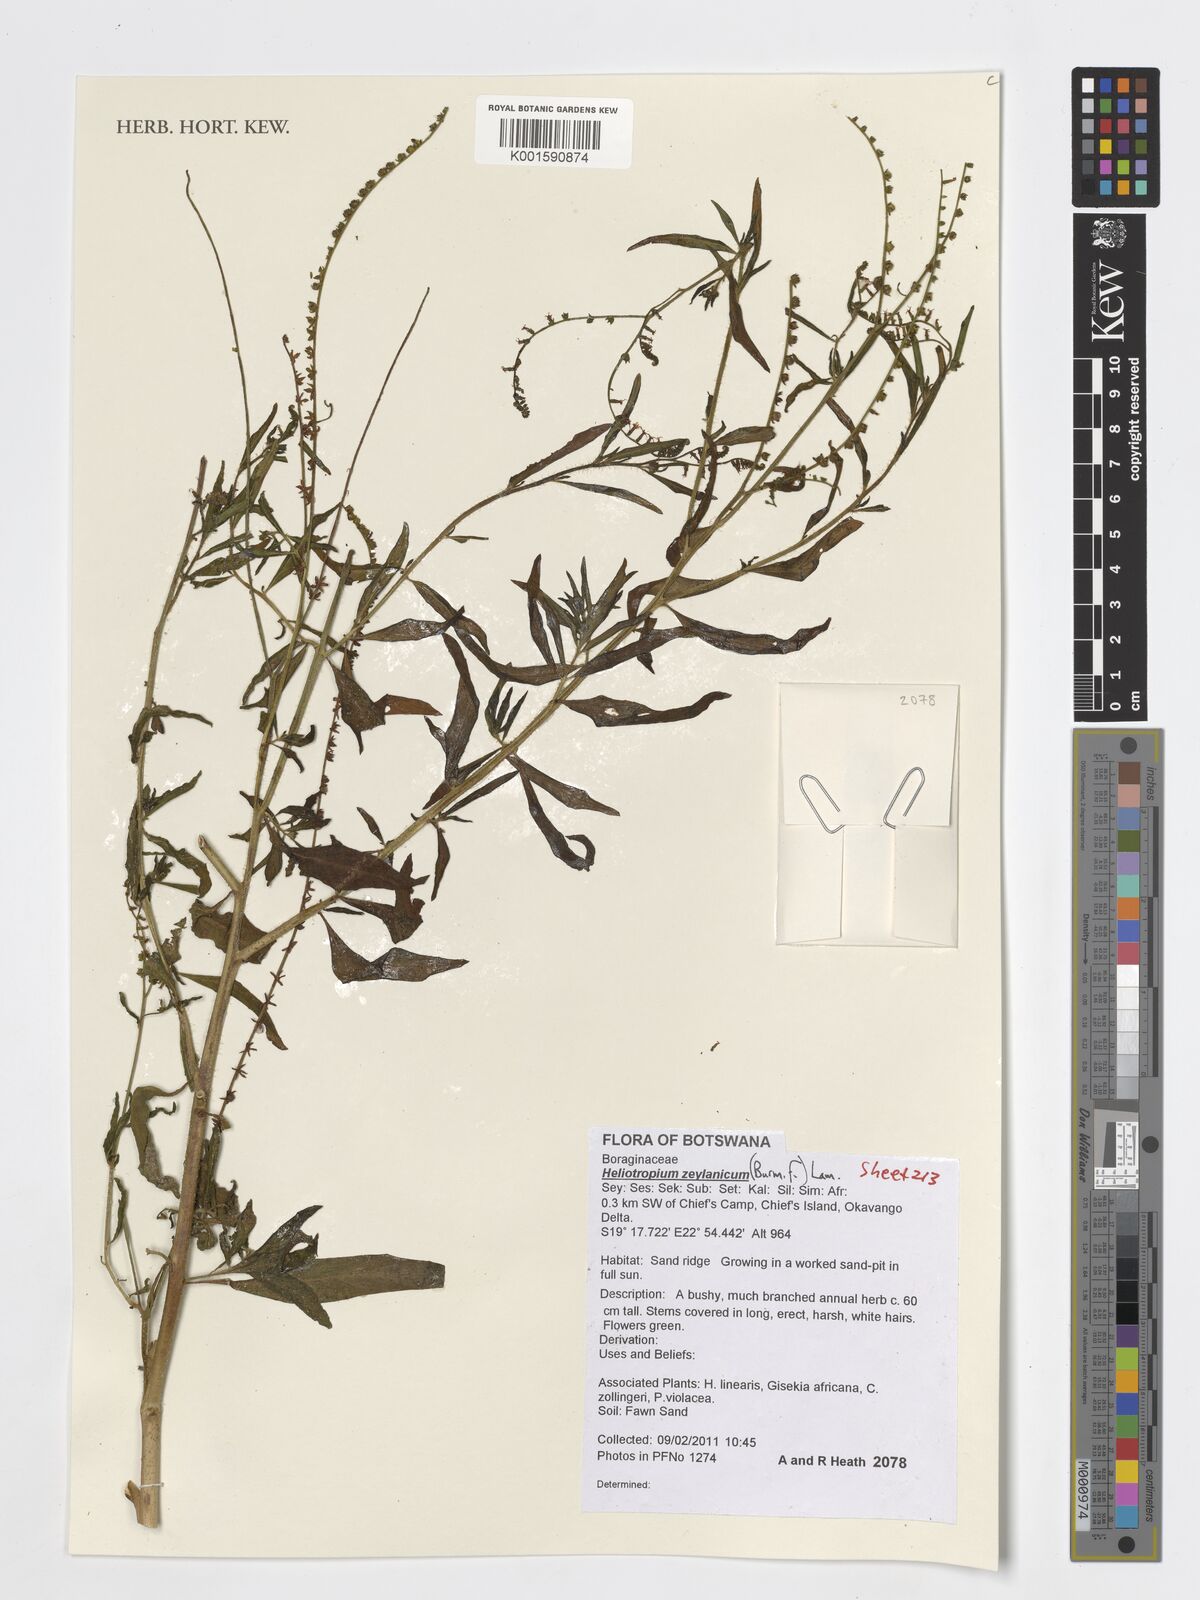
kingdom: Plantae
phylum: Tracheophyta
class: Magnoliopsida
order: Boraginales
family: Heliotropiaceae
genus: Heliotropium
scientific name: Heliotropium zeylanicum
